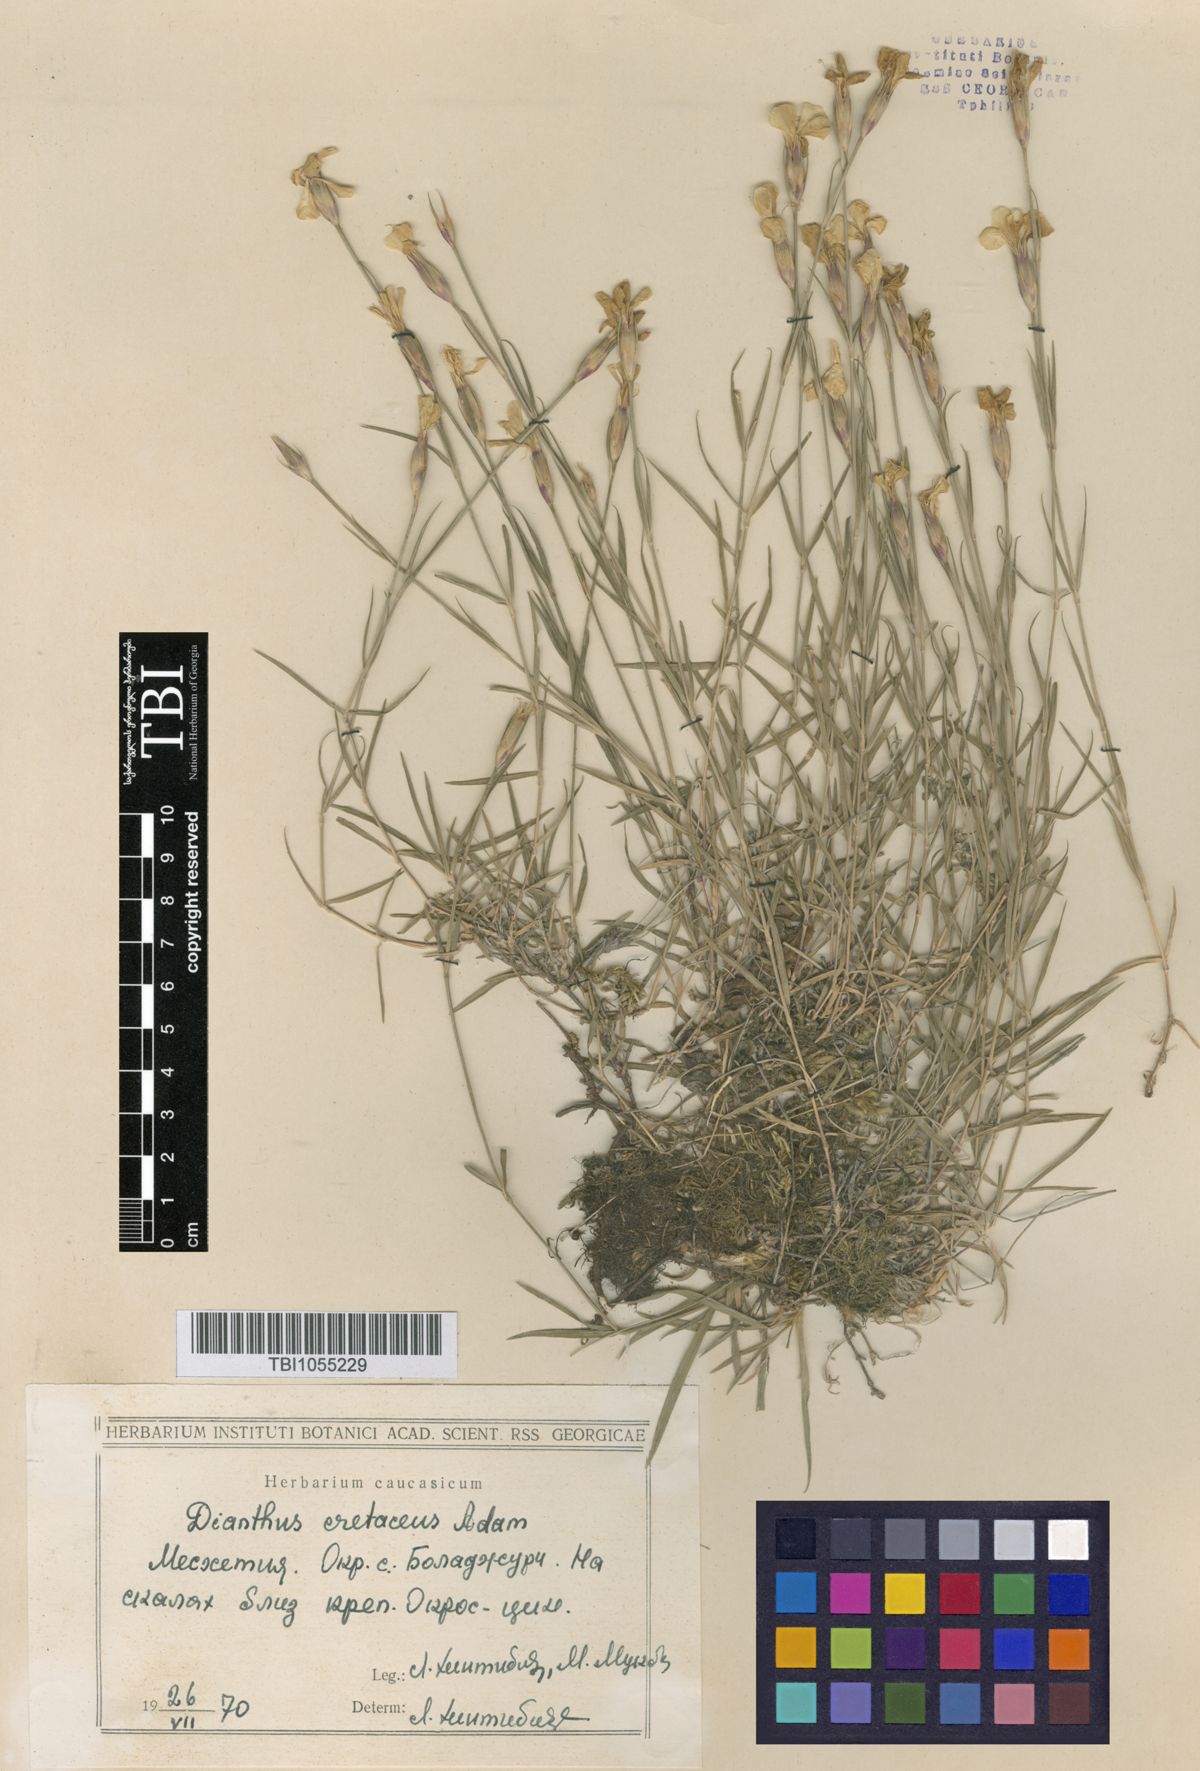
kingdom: Plantae
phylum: Tracheophyta
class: Magnoliopsida
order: Caryophyllales
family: Caryophyllaceae
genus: Dianthus
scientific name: Dianthus cretaceus
